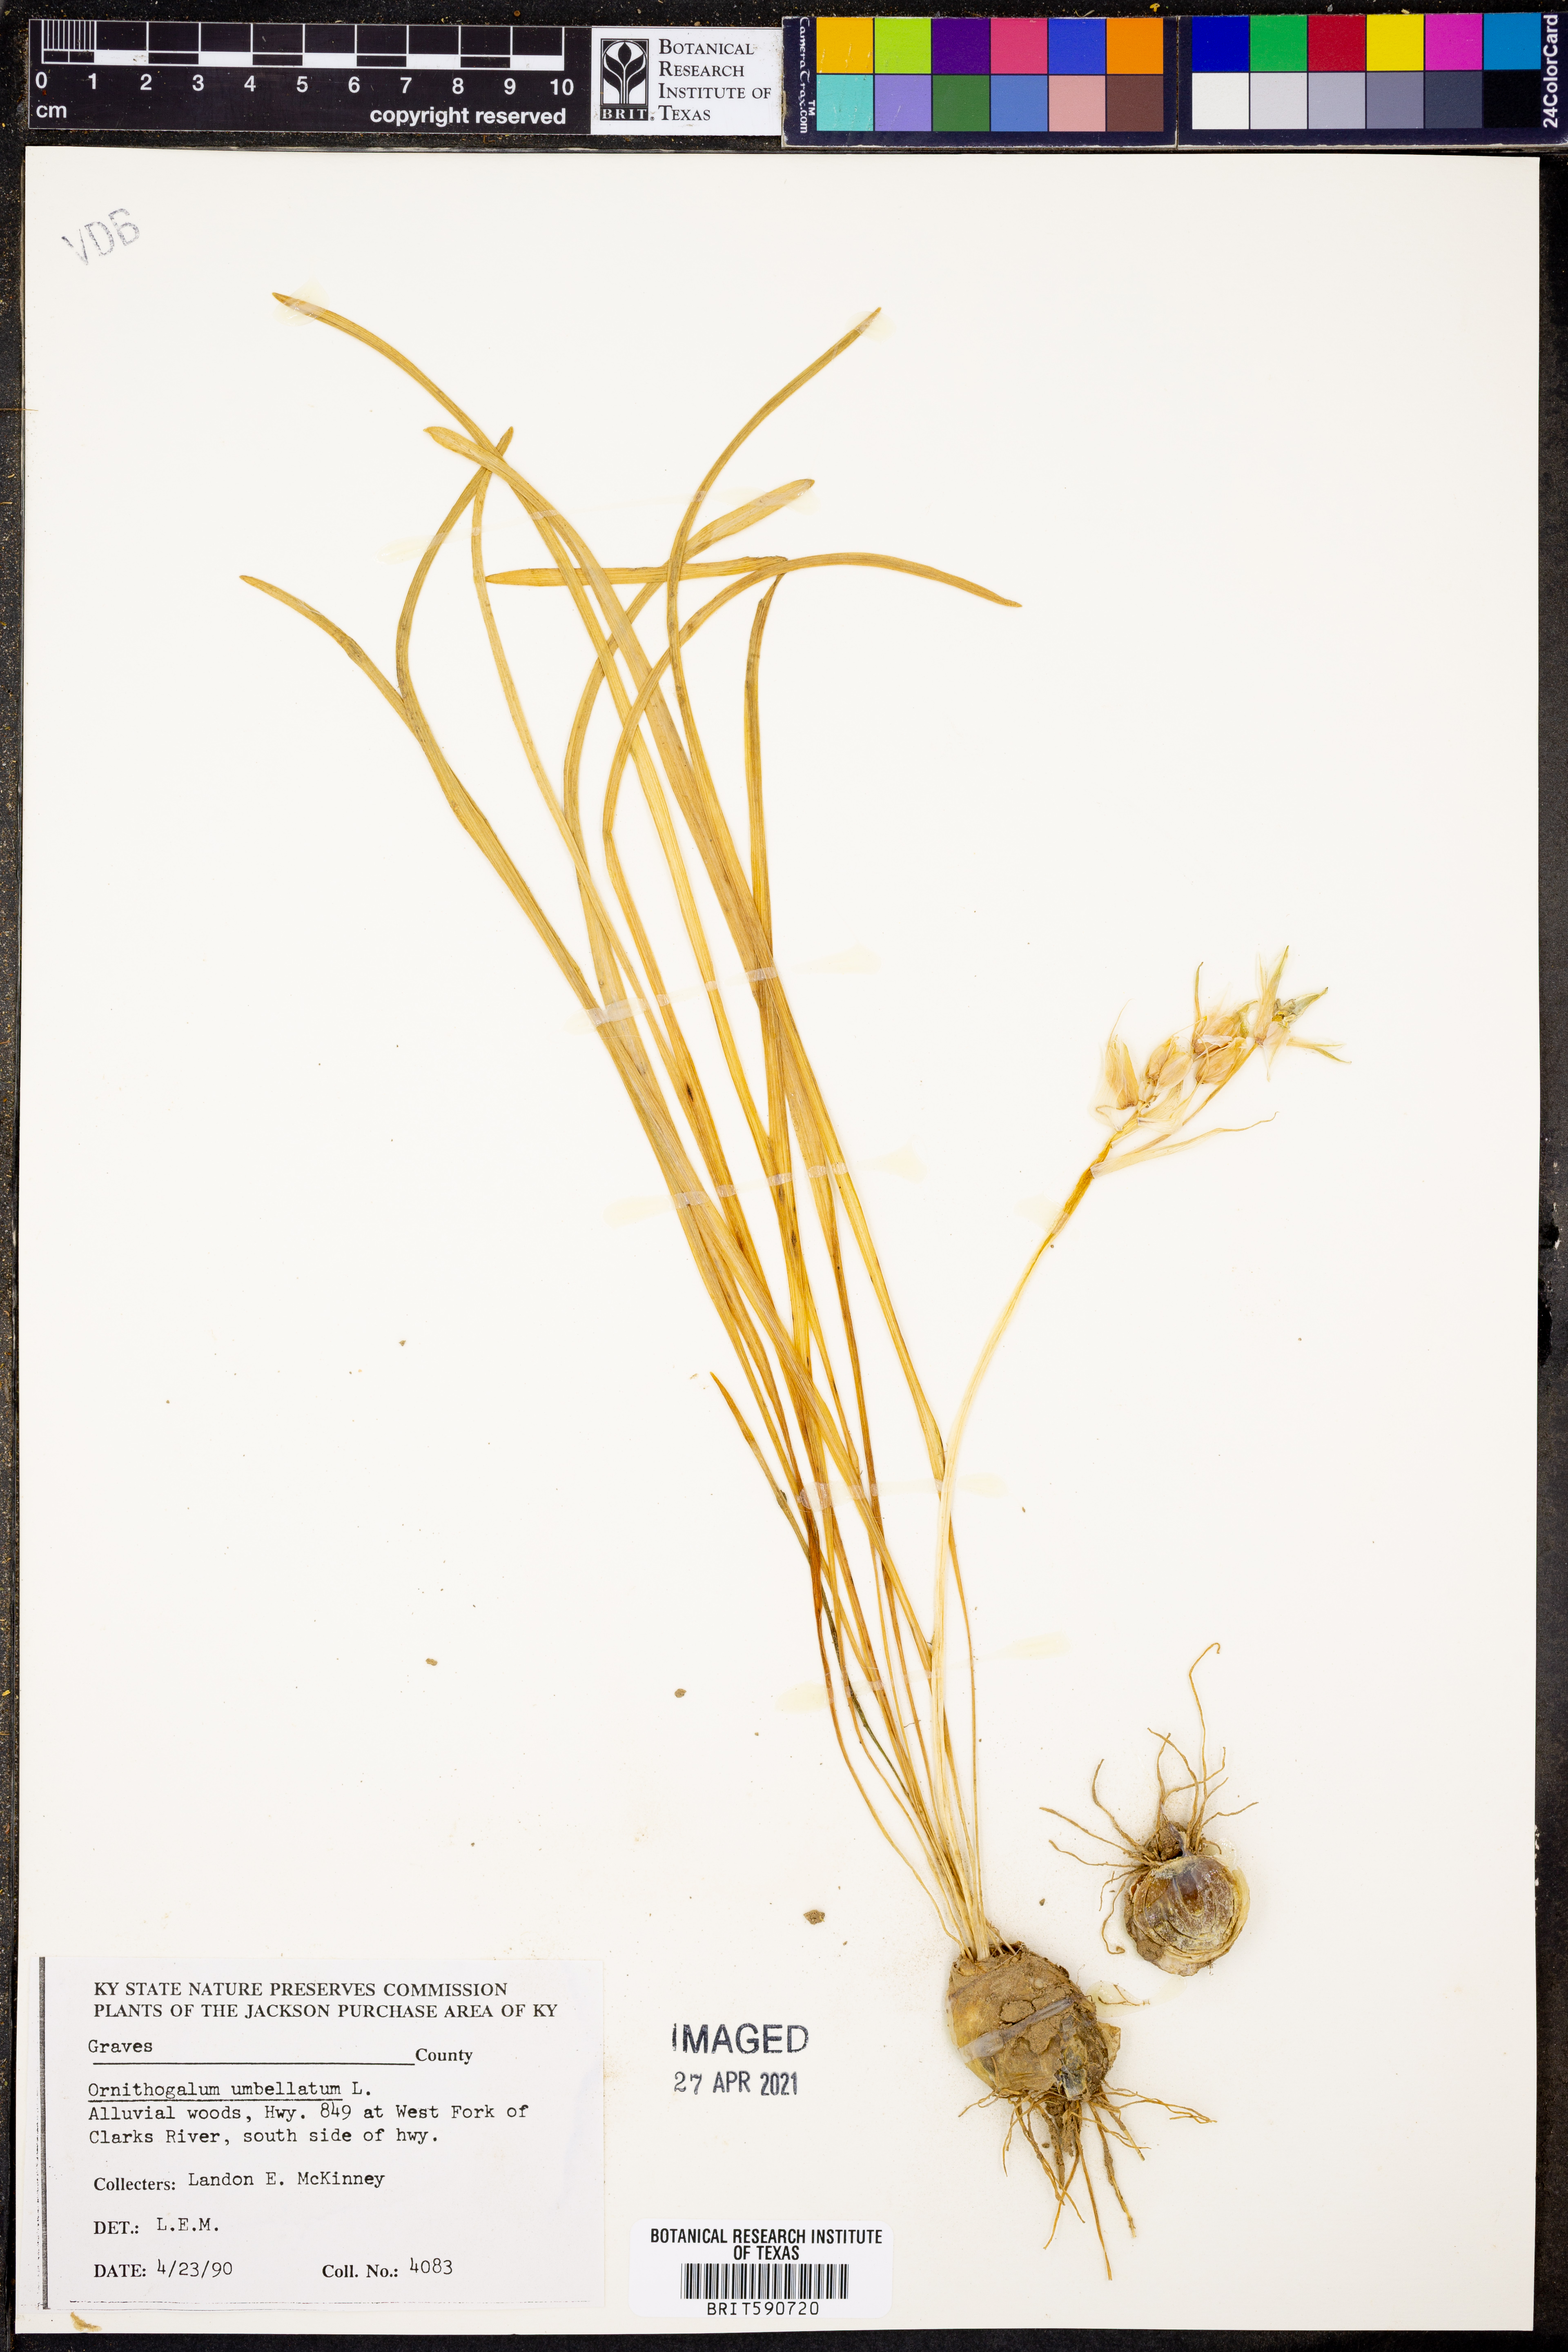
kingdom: Plantae
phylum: Tracheophyta
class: Liliopsida
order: Asparagales
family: Asparagaceae
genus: Ornithogalum
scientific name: Ornithogalum umbellatum
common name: Garden star-of-bethlehem
